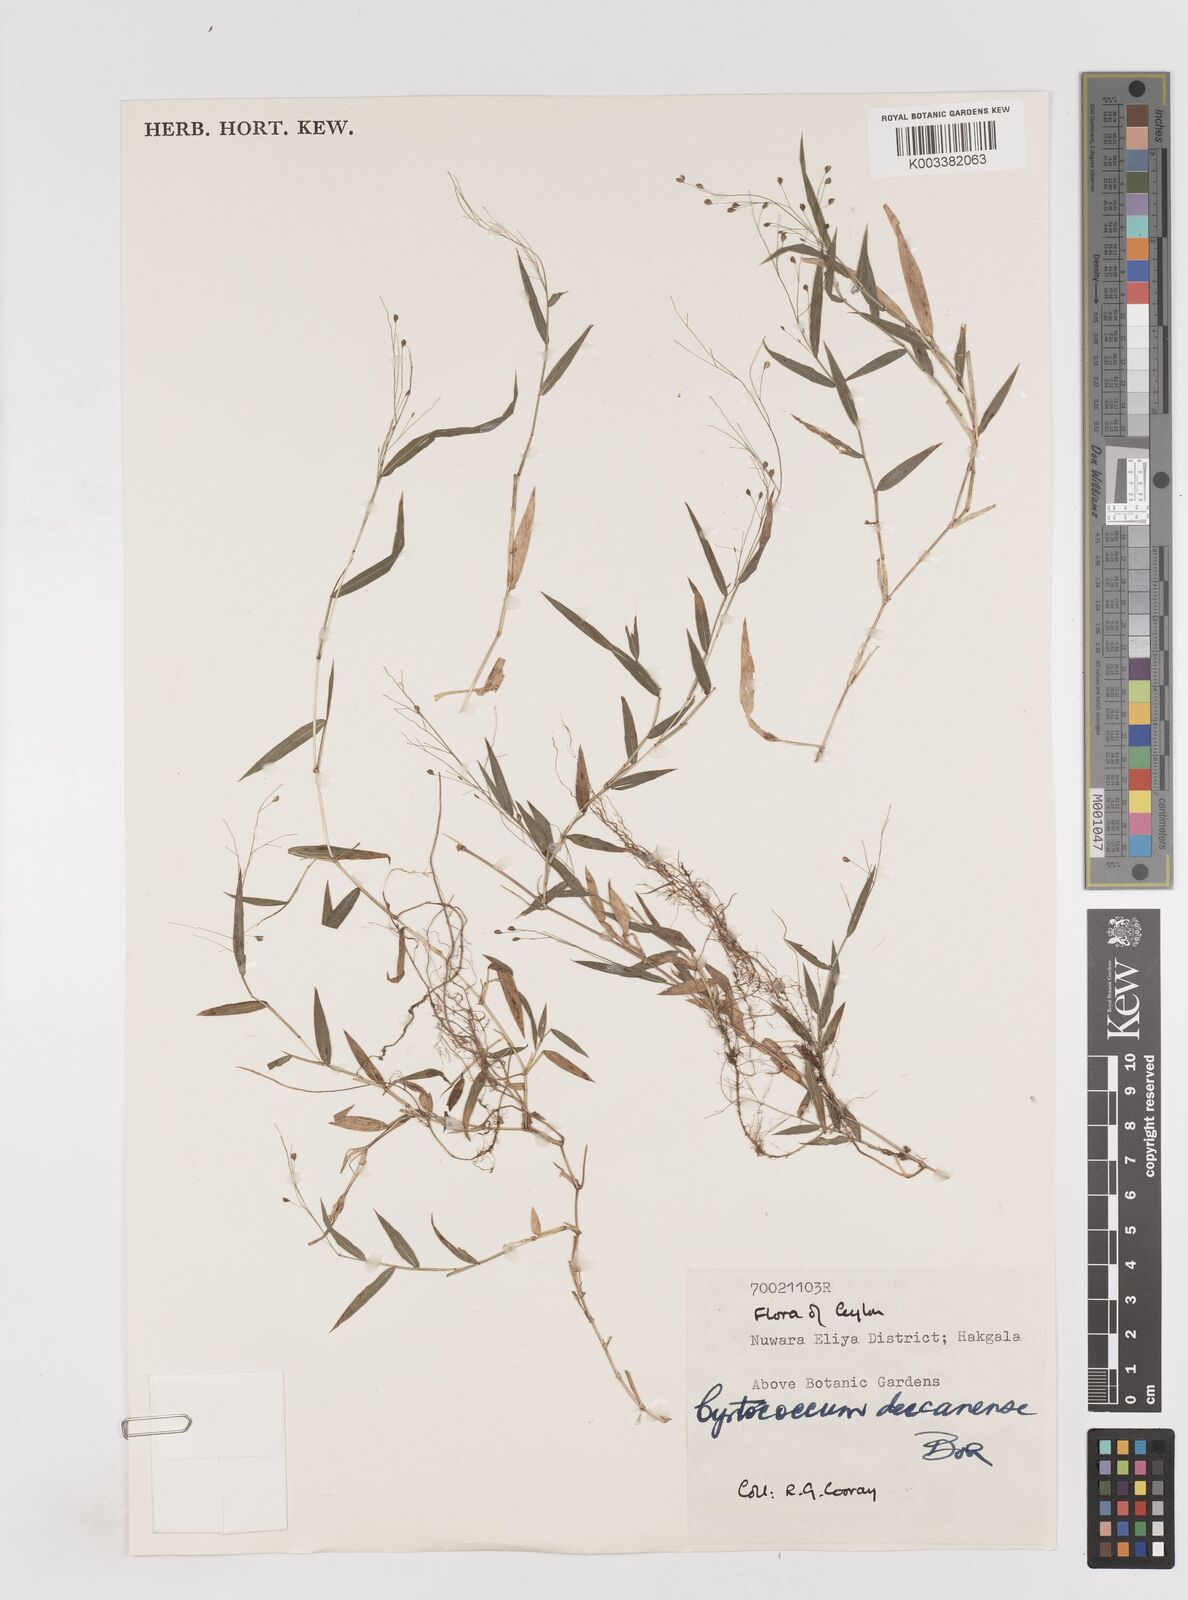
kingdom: Plantae
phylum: Tracheophyta
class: Liliopsida
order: Poales
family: Poaceae
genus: Cyrtococcum
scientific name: Cyrtococcum deccanense
